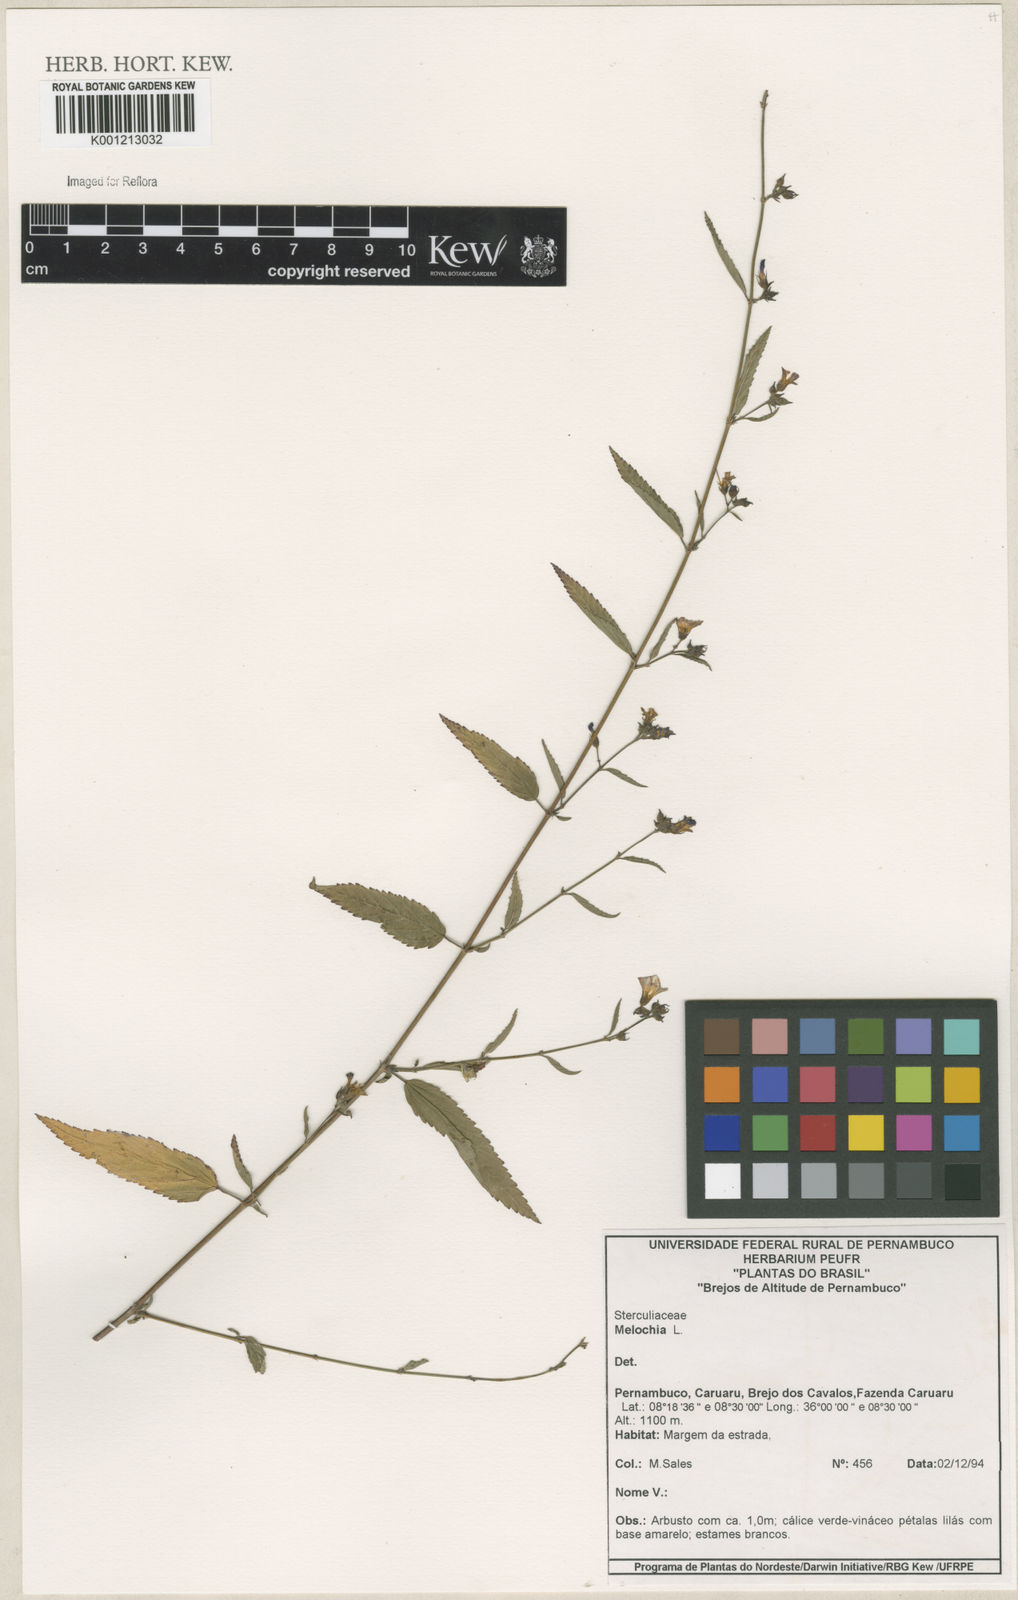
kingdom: Plantae
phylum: Tracheophyta
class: Magnoliopsida
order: Malvales
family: Malvaceae
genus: Melochia
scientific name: Melochia
